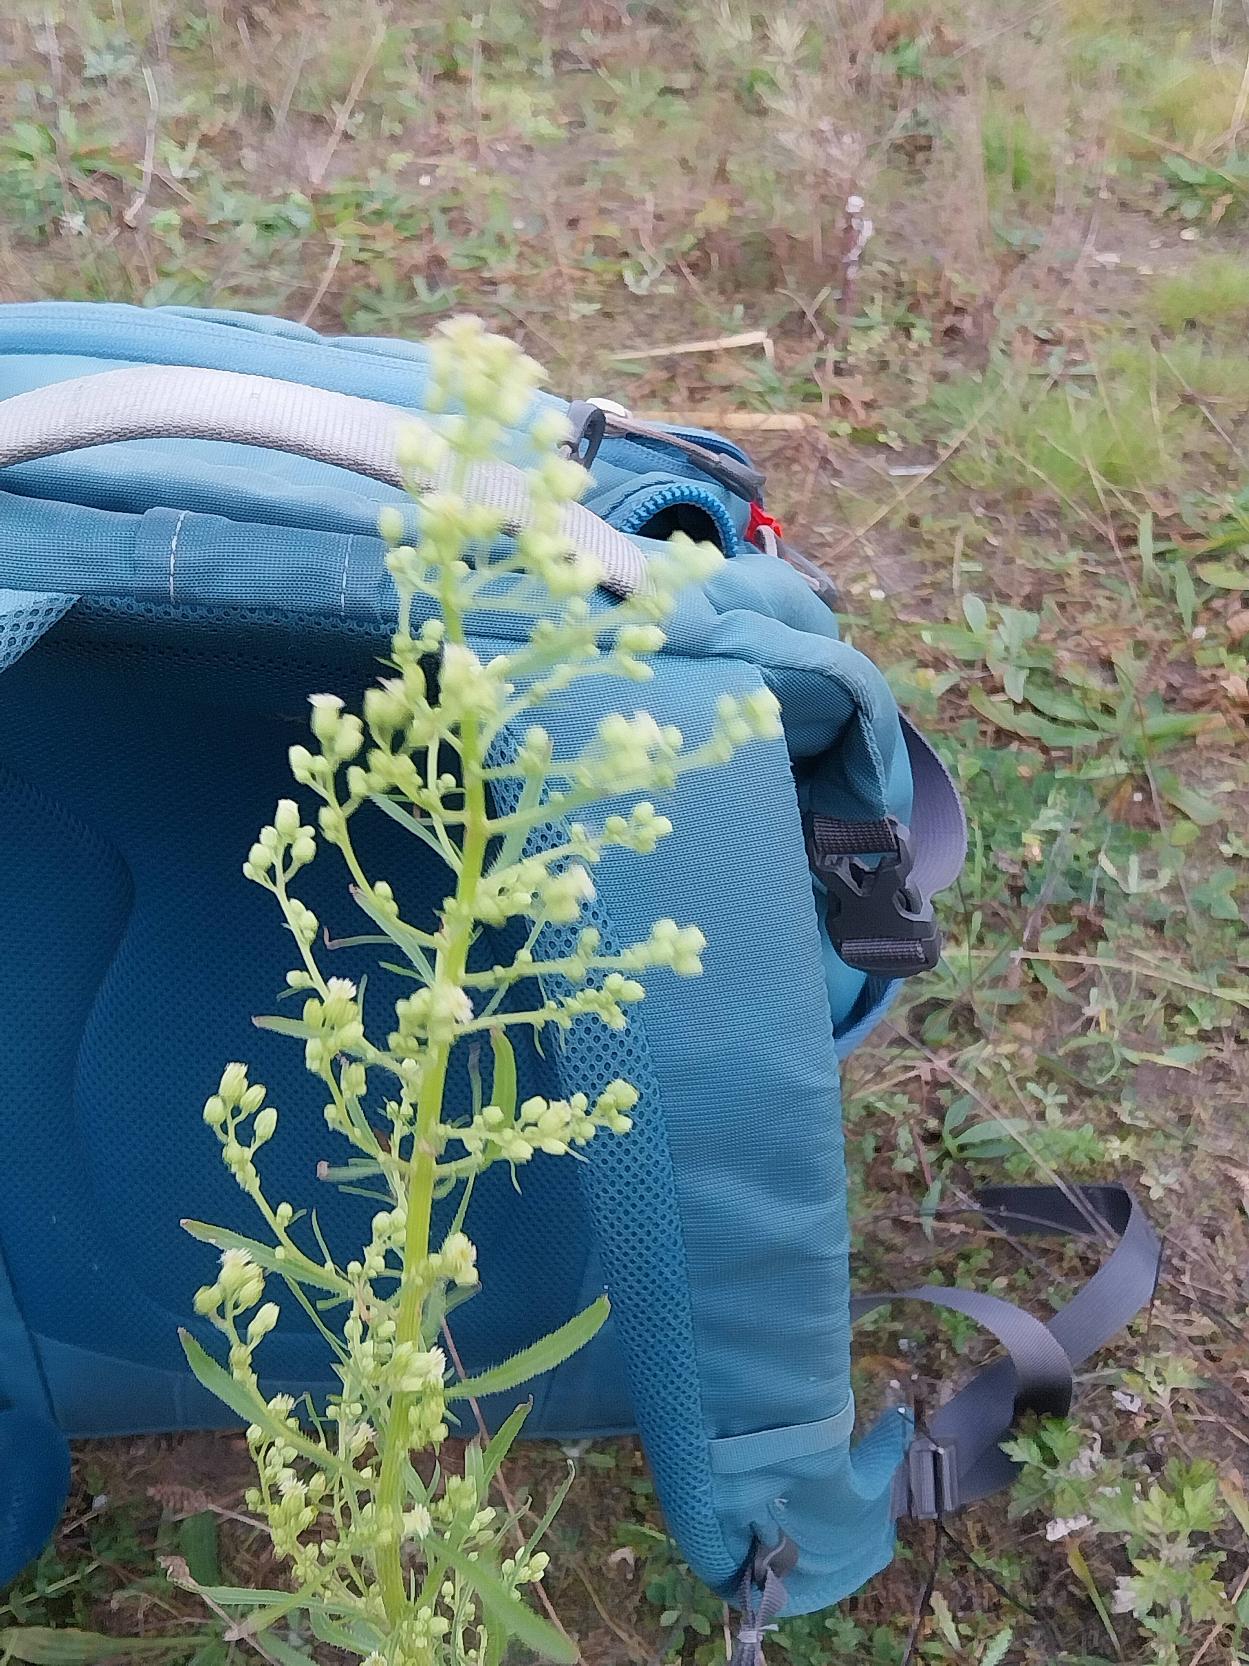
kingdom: Plantae
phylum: Tracheophyta
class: Magnoliopsida
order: Asterales
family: Asteraceae
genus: Erigeron
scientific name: Erigeron canadensis
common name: Kanadisk bakkestjerne
